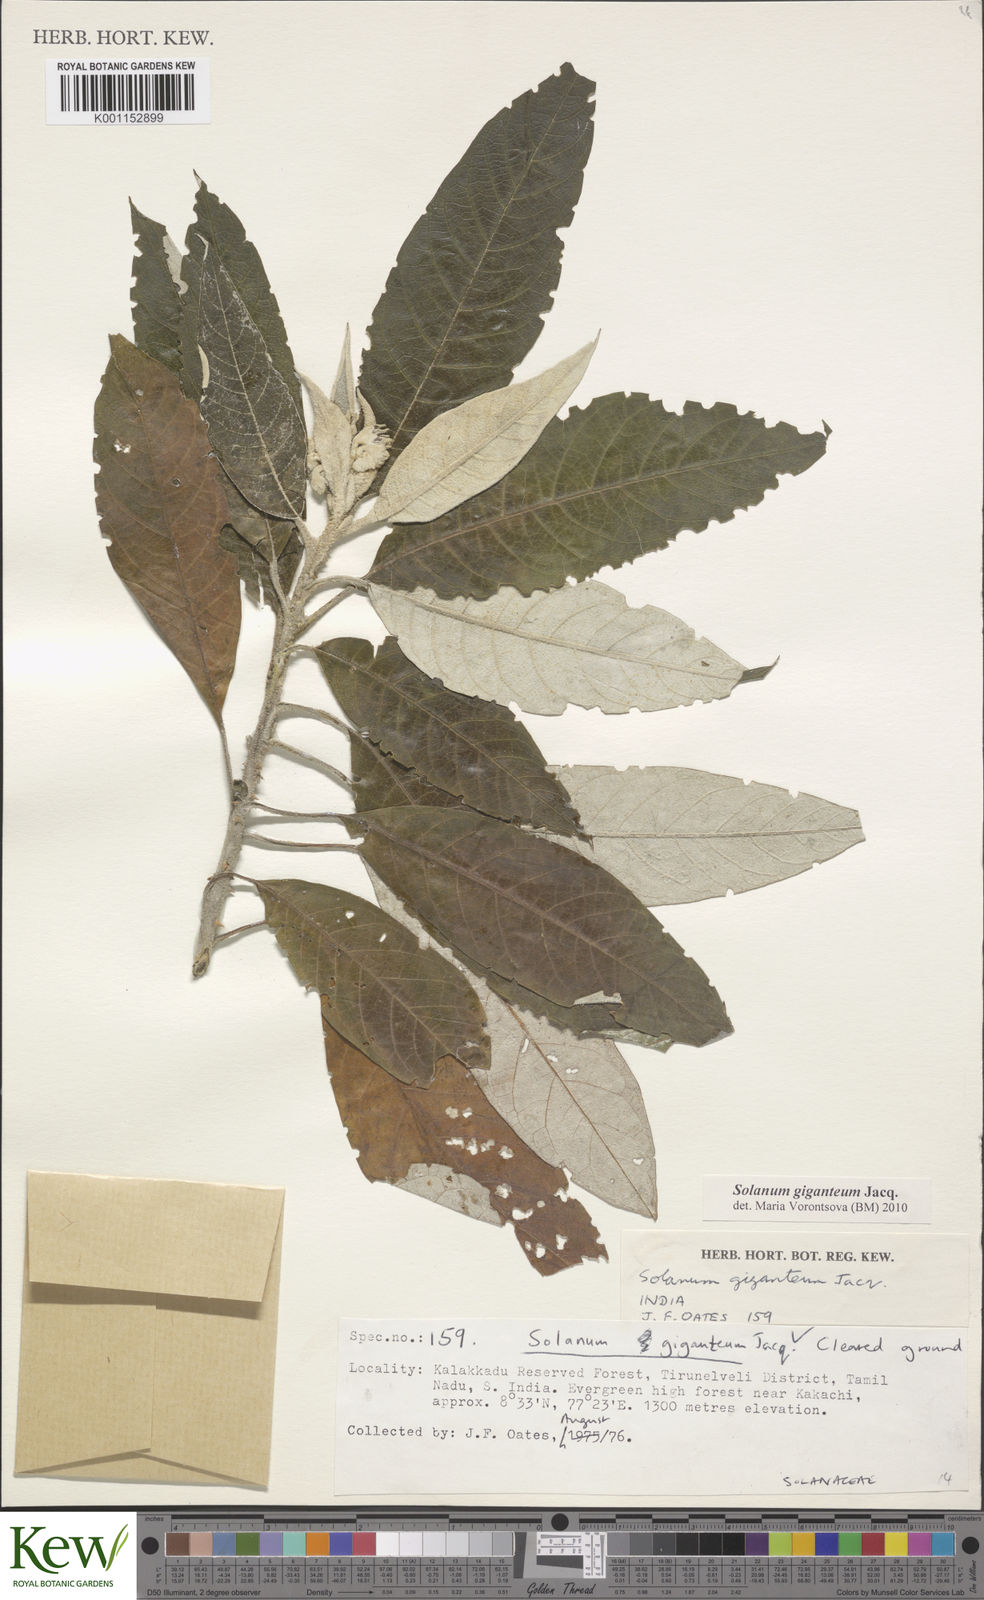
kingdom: Plantae
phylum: Tracheophyta
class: Magnoliopsida
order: Solanales
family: Solanaceae
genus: Solanum
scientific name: Solanum giganteum
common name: Healing-leaf-tree
